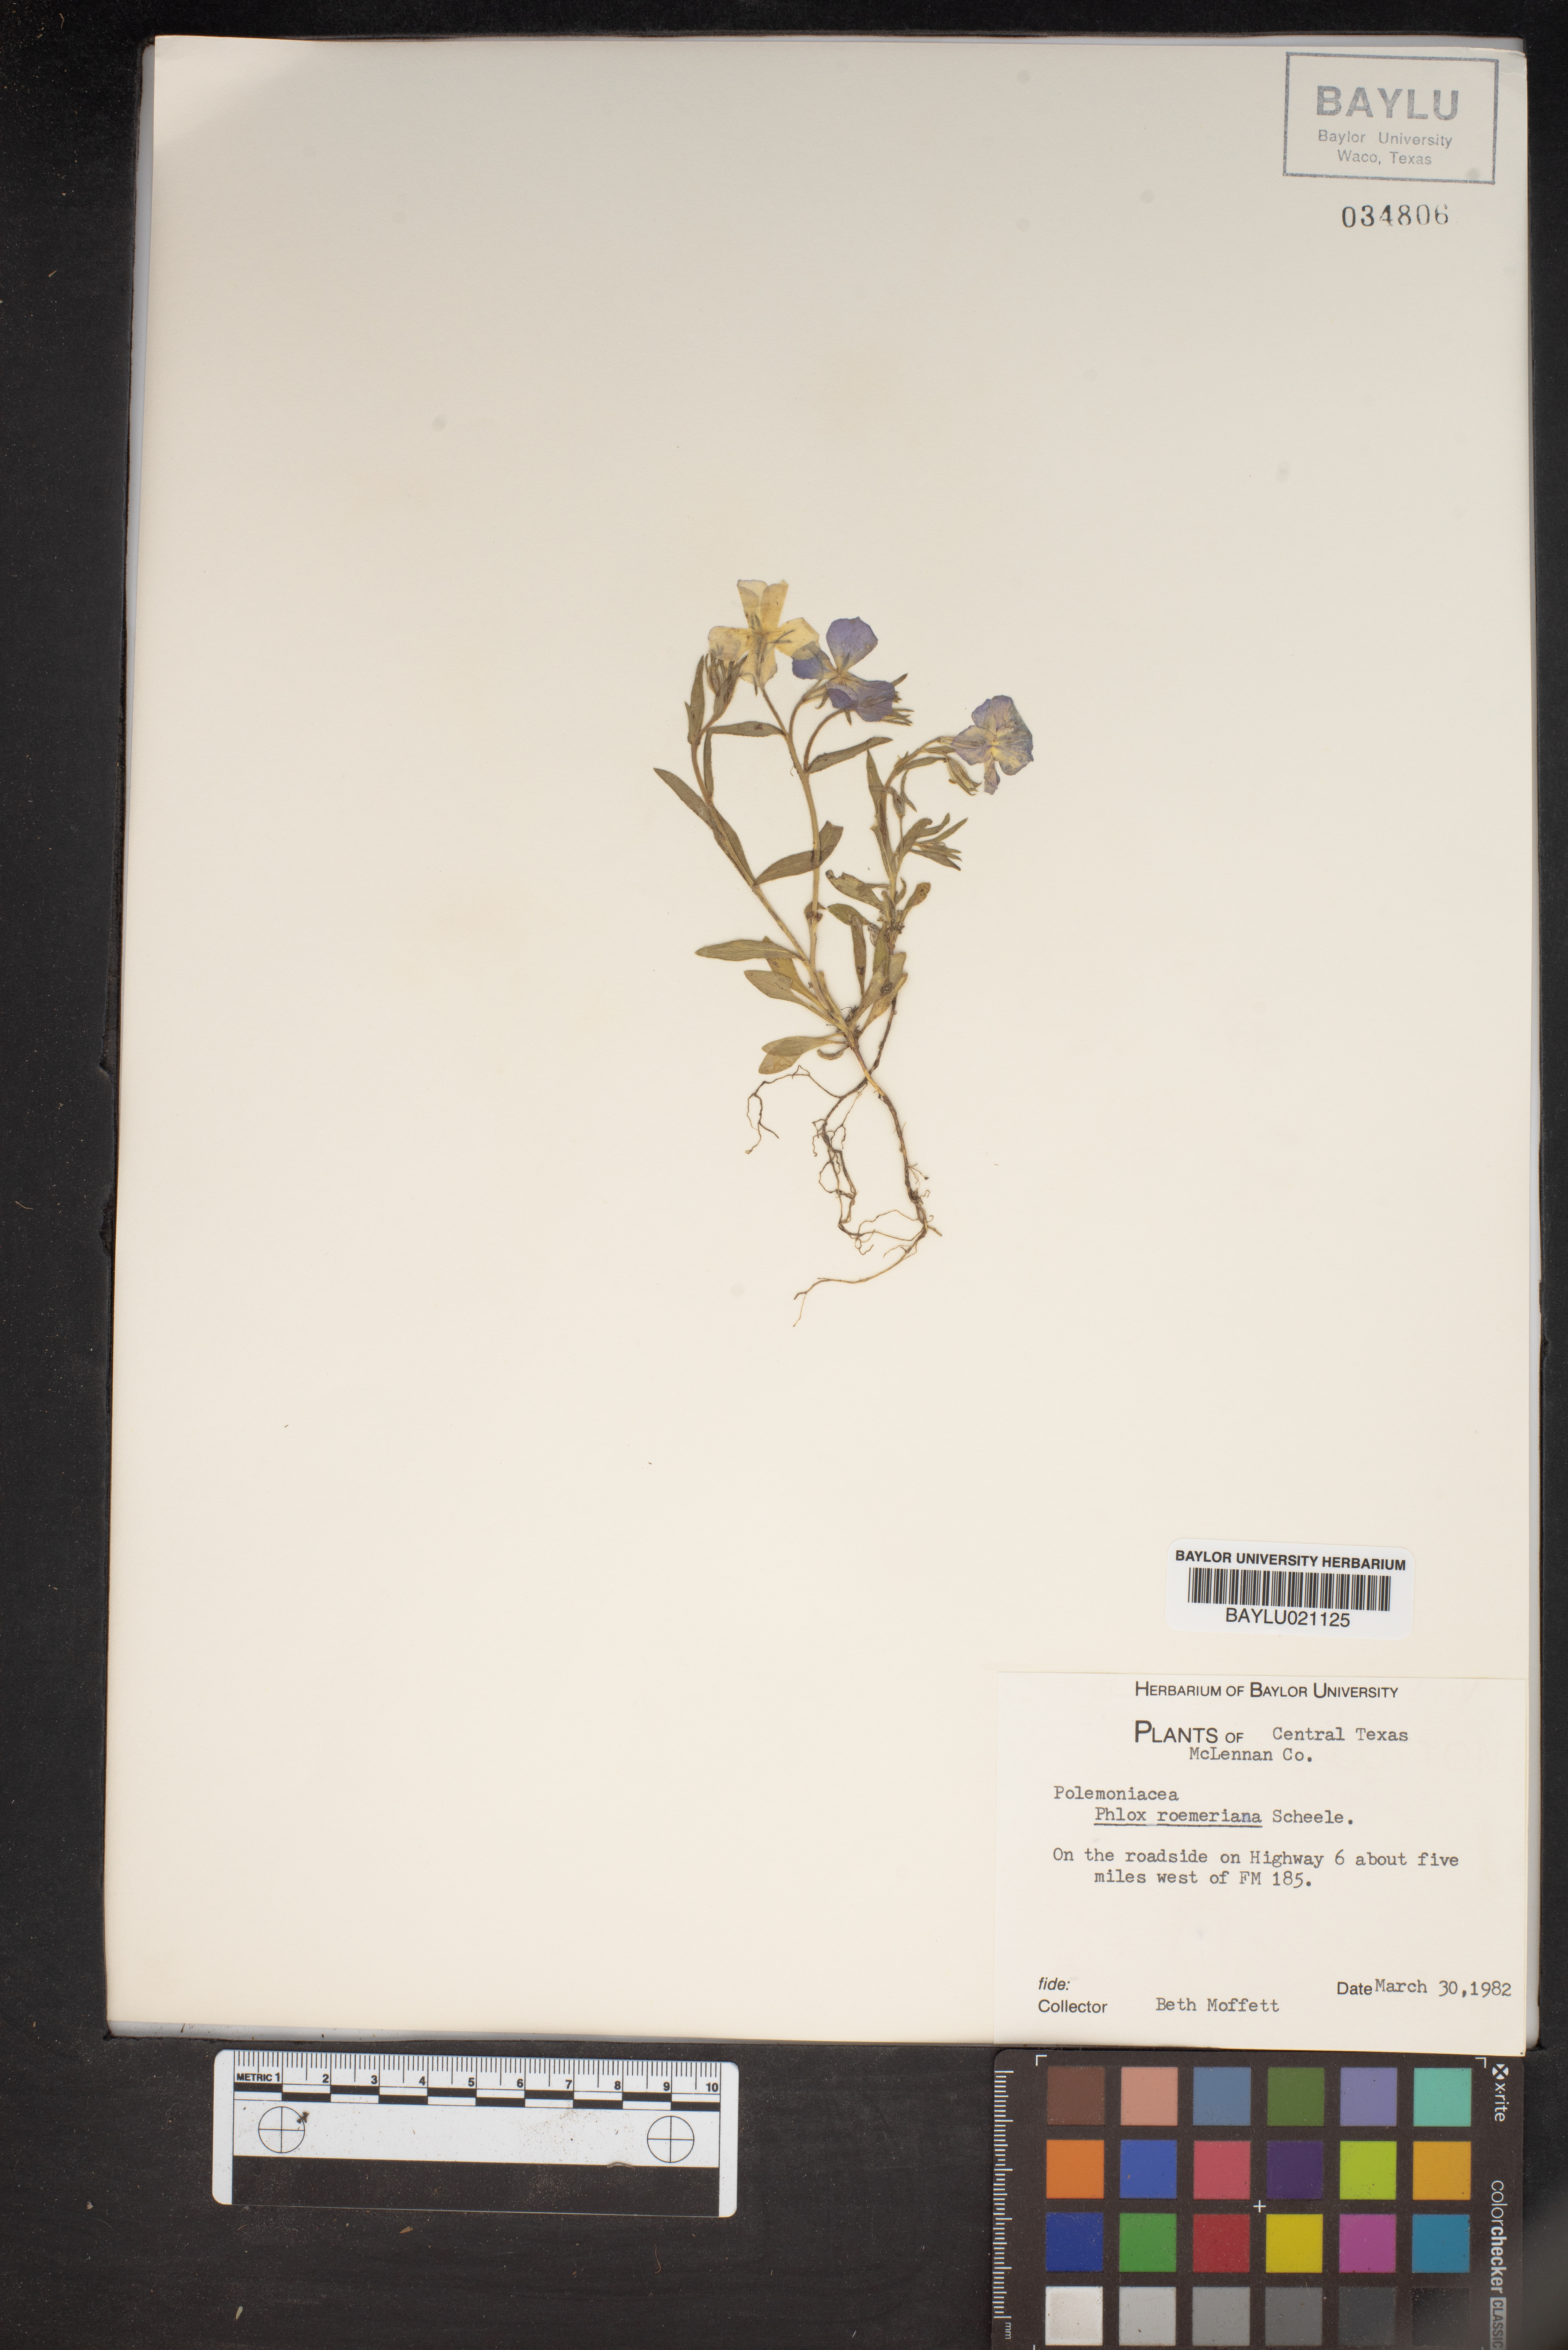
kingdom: Plantae
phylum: Tracheophyta
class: Magnoliopsida
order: Ericales
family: Polemoniaceae
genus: Phlox
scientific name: Phlox roemeriana
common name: Roemer's phlox
